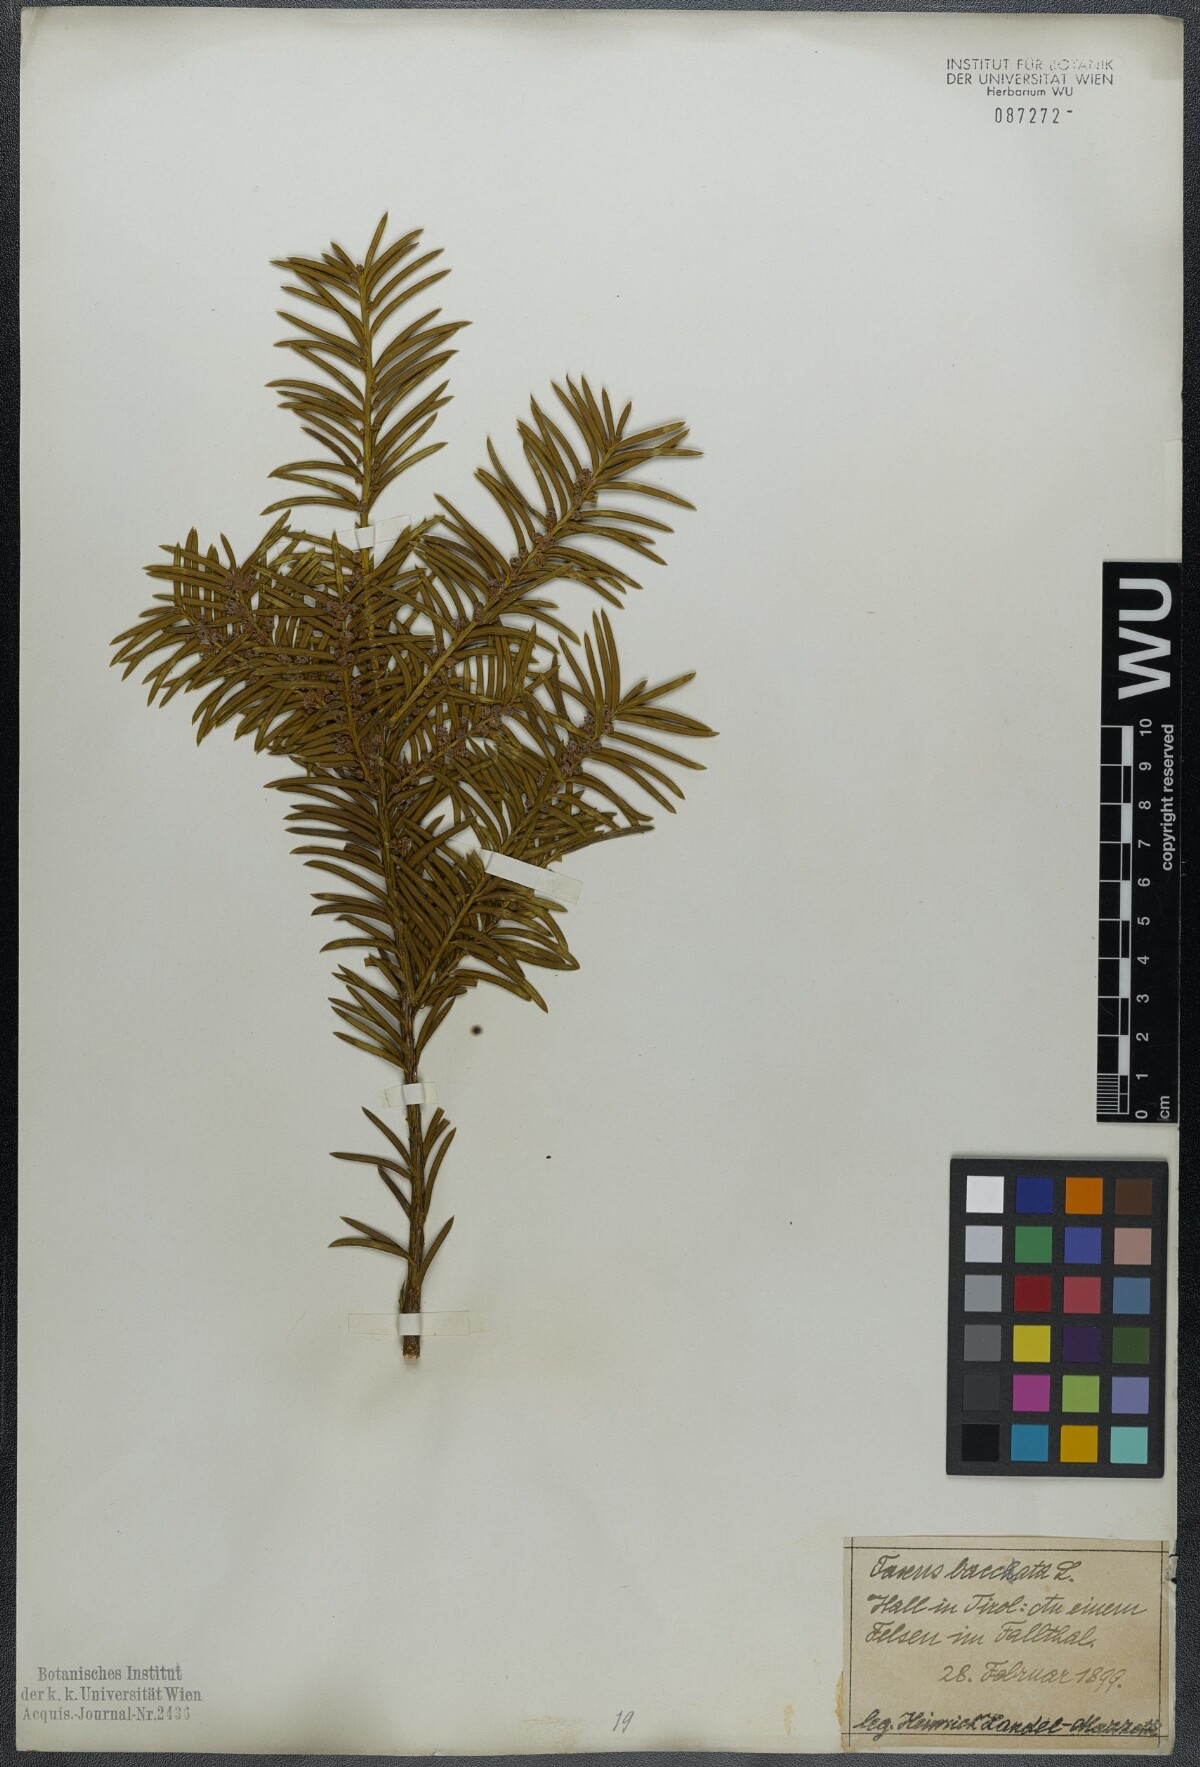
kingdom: Plantae
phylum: Tracheophyta
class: Pinopsida
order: Pinales
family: Taxaceae
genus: Taxus
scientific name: Taxus baccata
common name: Yew
